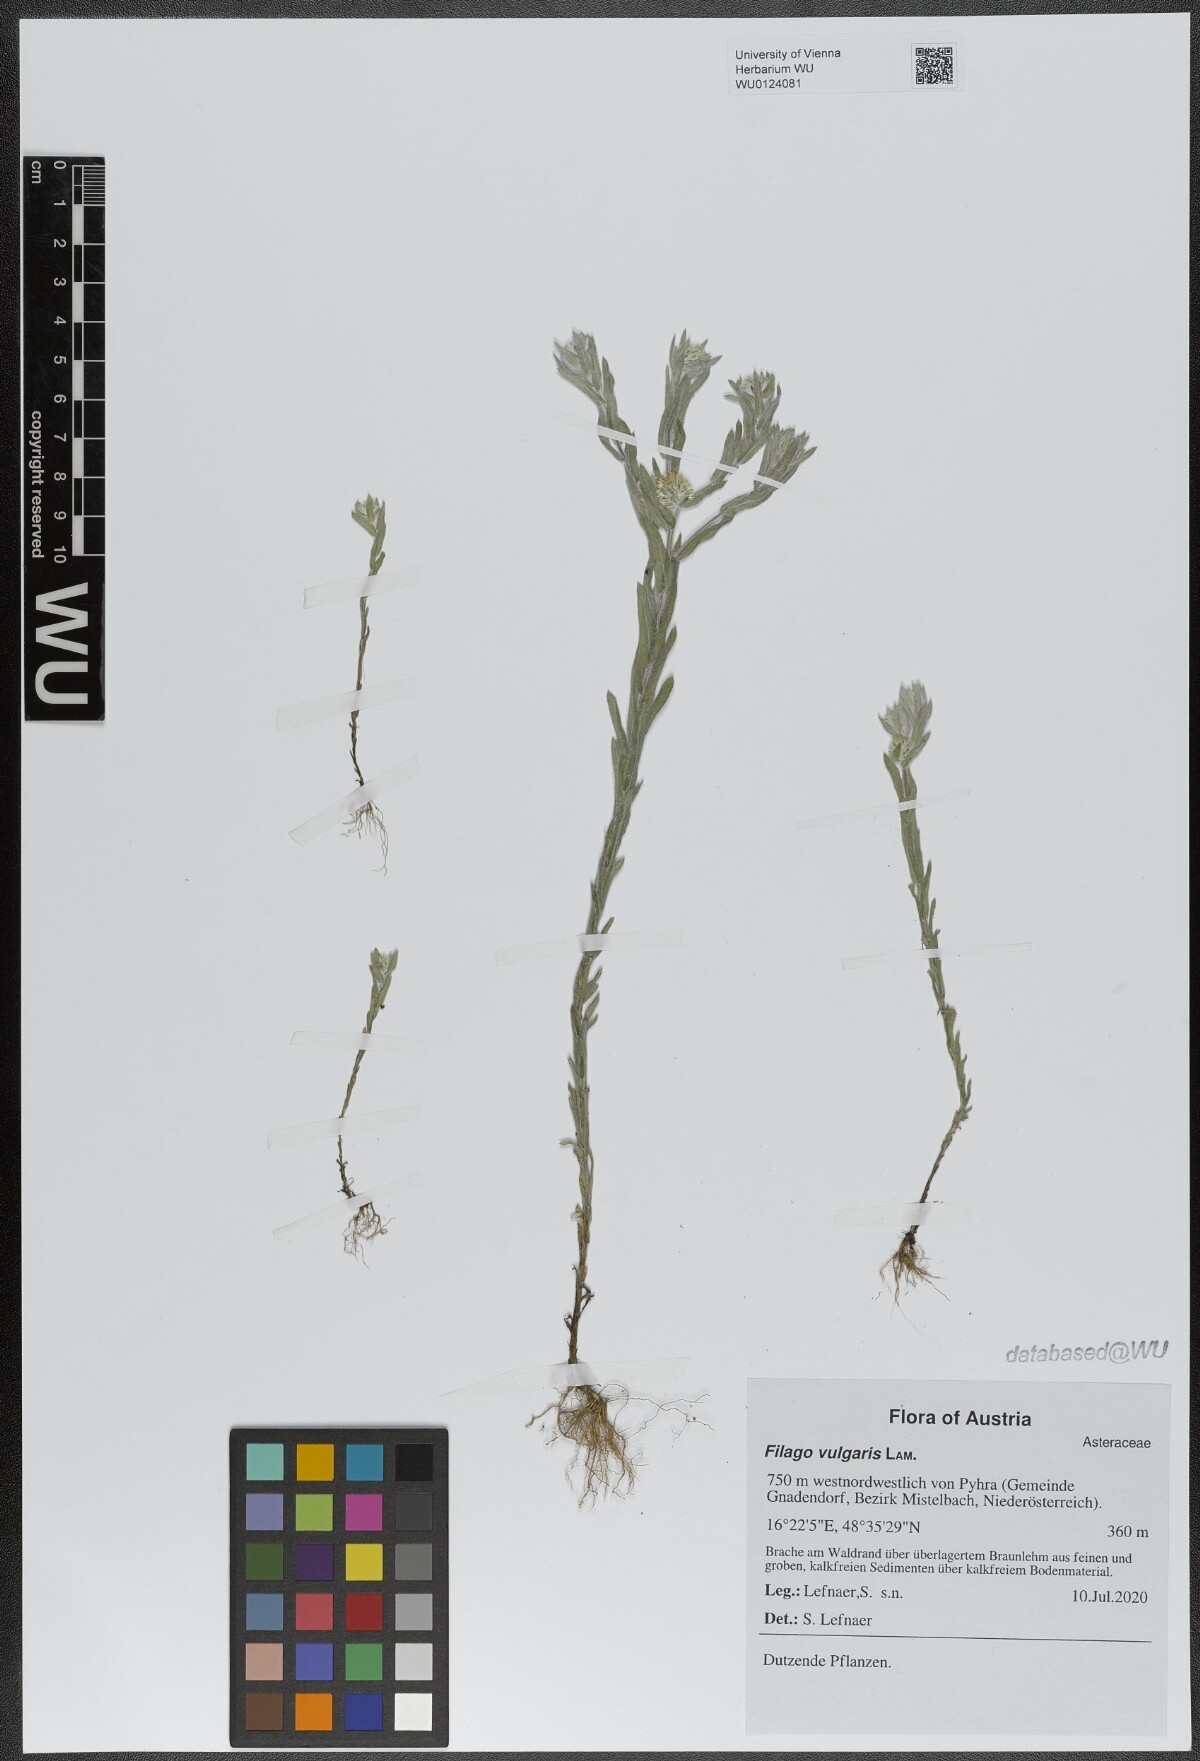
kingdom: Plantae
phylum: Tracheophyta
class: Magnoliopsida
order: Asterales
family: Asteraceae
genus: Filago
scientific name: Filago germanica
